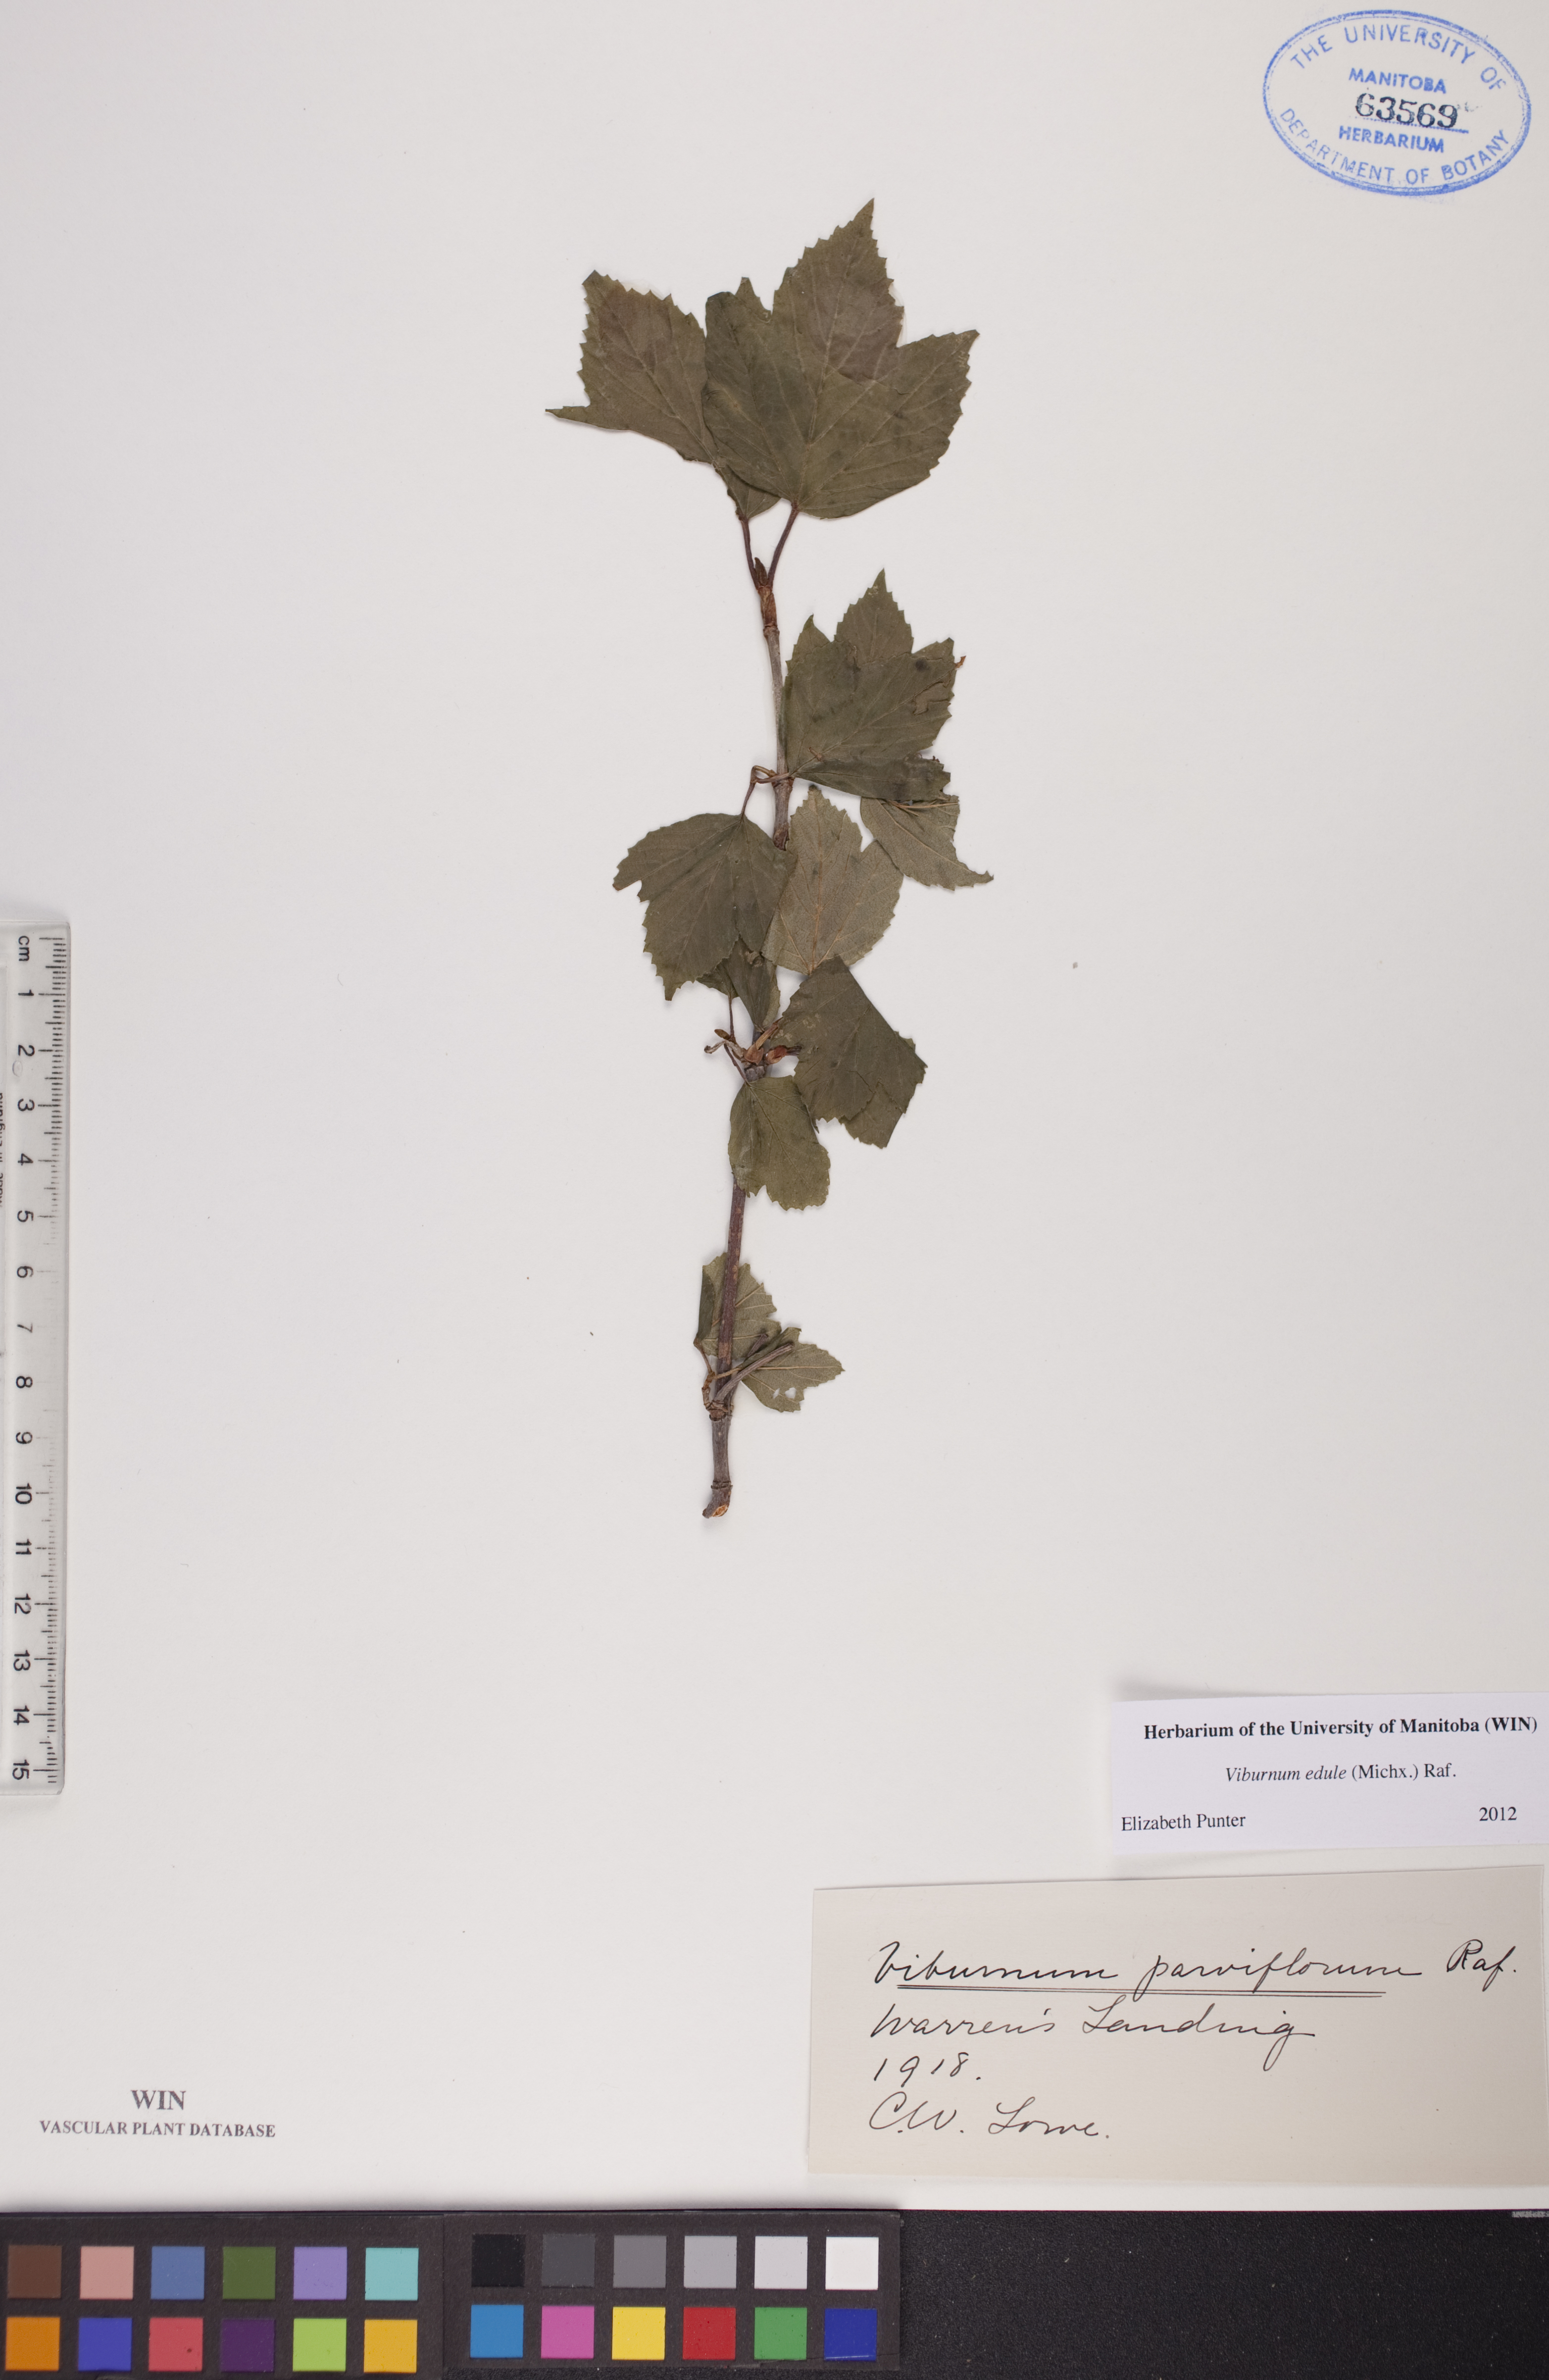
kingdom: Plantae
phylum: Tracheophyta
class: Magnoliopsida
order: Dipsacales
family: Viburnaceae
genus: Viburnum
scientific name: Viburnum edule
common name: Mooseberry
